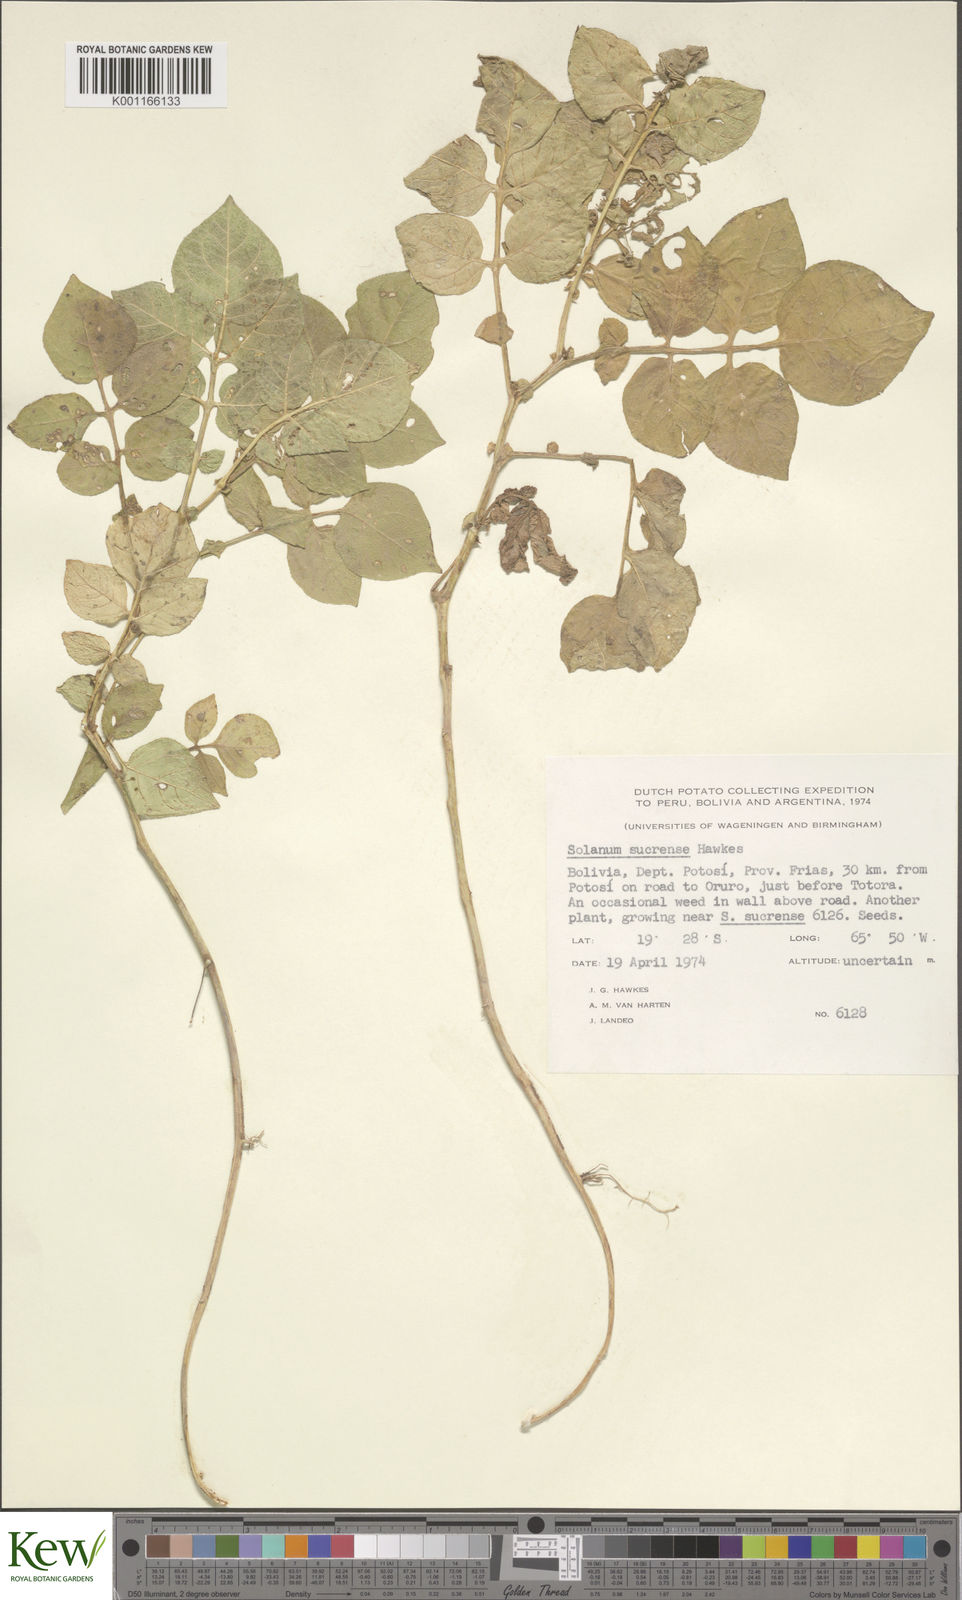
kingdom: Plantae
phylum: Tracheophyta
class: Magnoliopsida
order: Solanales
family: Solanaceae
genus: Solanum
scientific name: Solanum brevicaule
